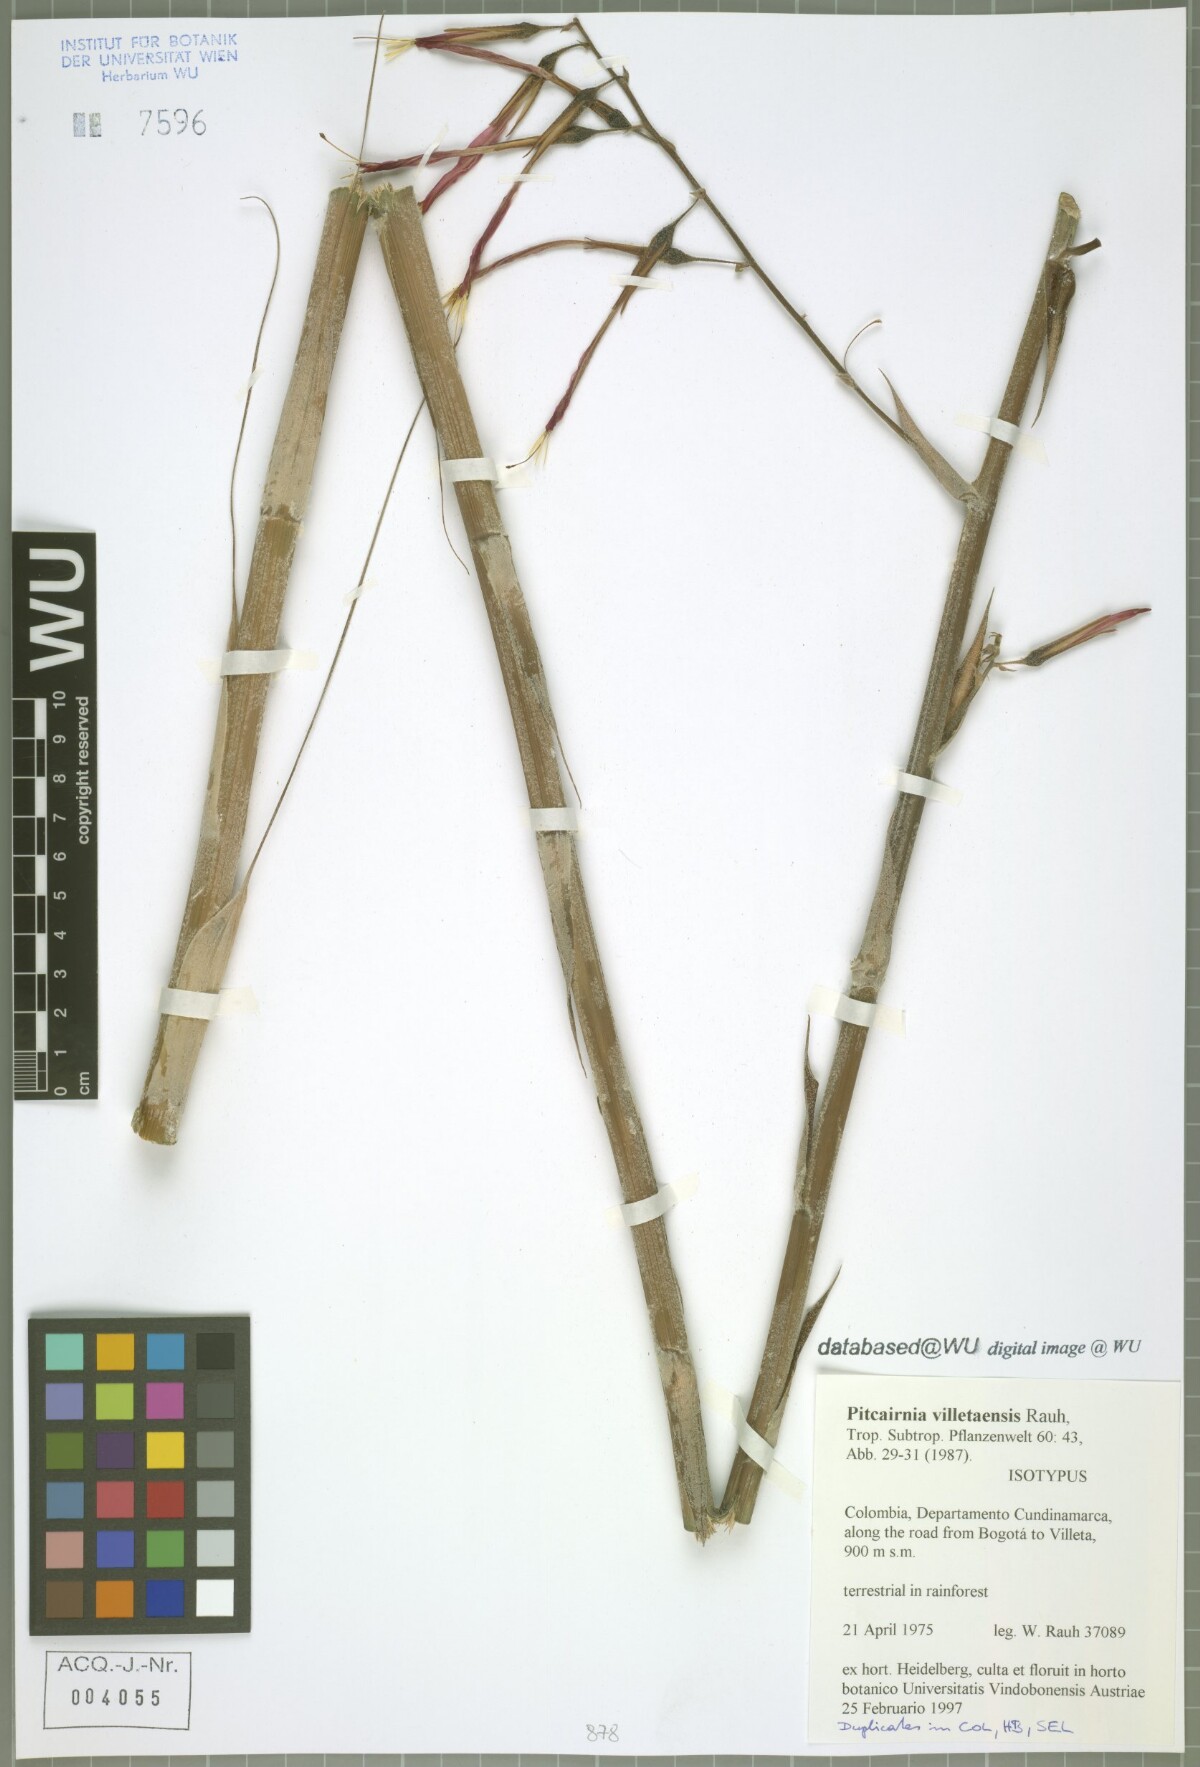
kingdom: Plantae
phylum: Tracheophyta
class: Liliopsida
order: Poales
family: Bromeliaceae
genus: Pitcairnia
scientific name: Pitcairnia villetaensis
